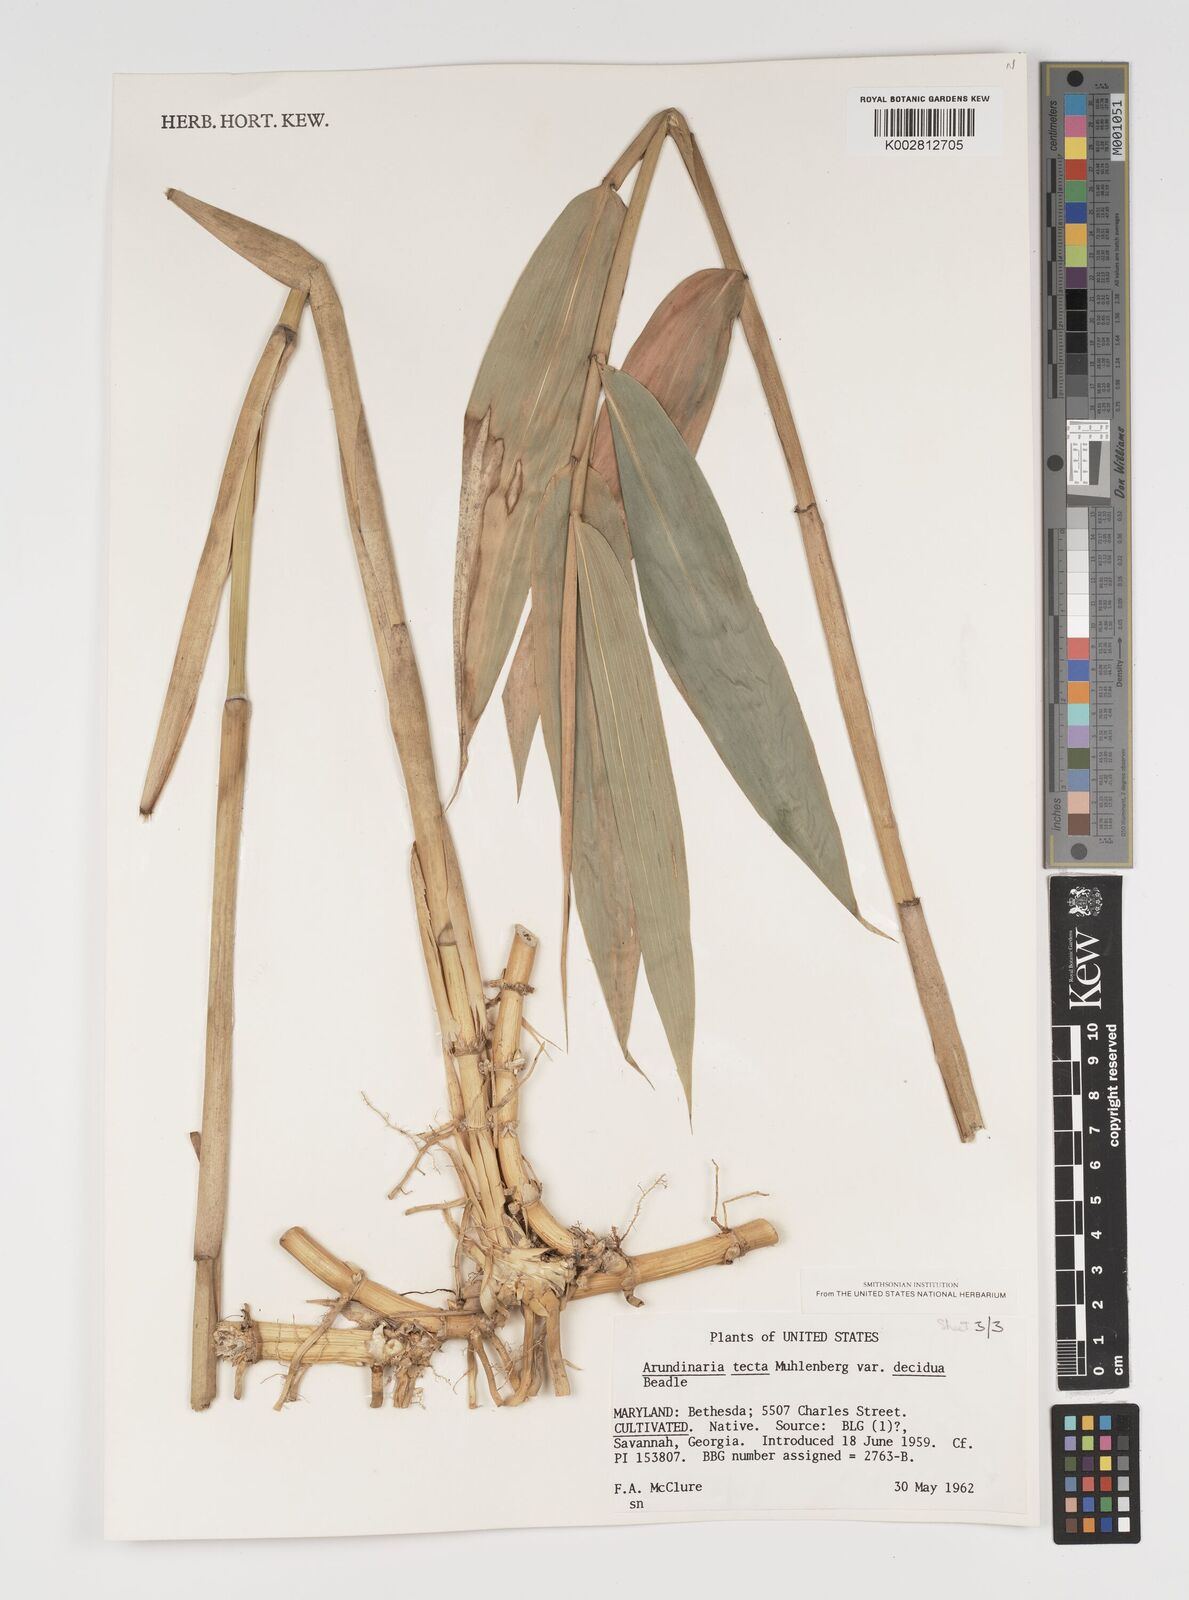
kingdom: Plantae
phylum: Tracheophyta
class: Liliopsida
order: Poales
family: Poaceae
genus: Arundinaria
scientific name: Arundinaria tecta
